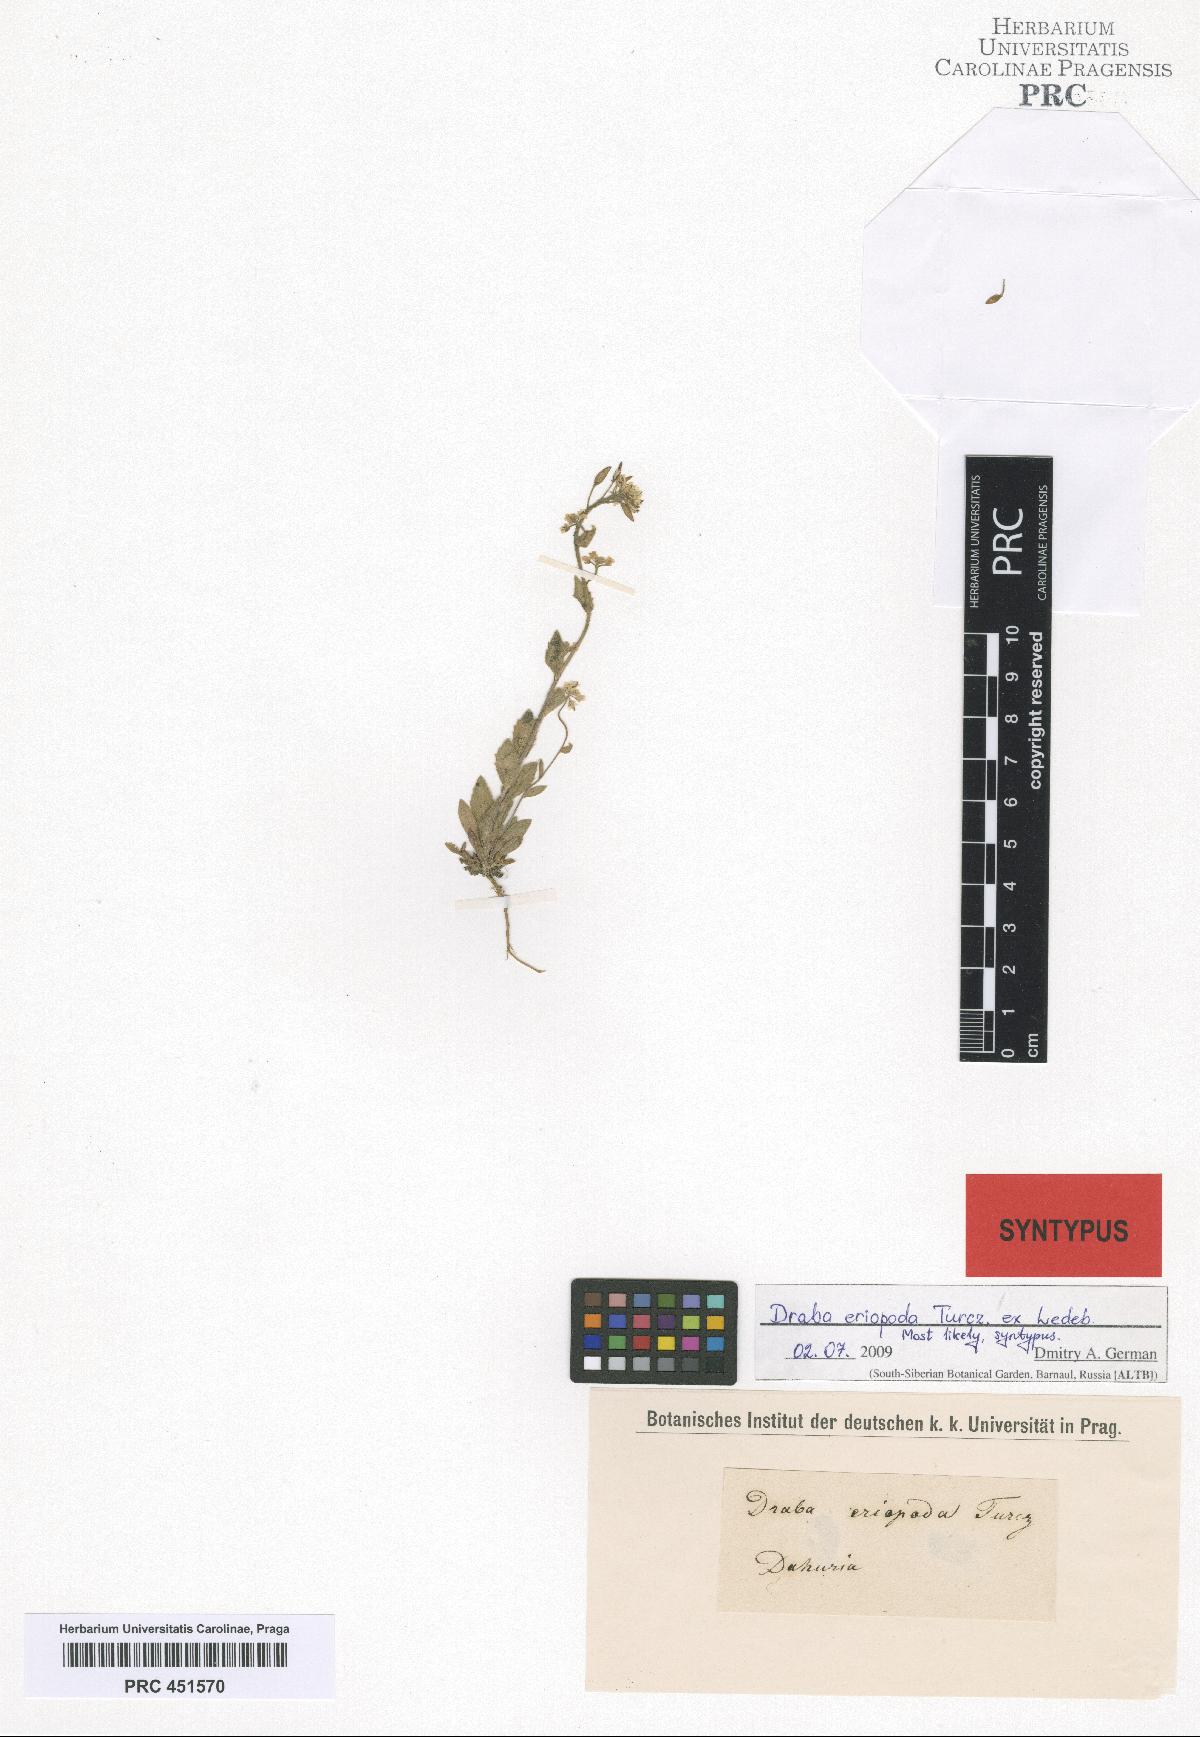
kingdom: Plantae
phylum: Tracheophyta
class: Magnoliopsida
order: Brassicales
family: Brassicaceae
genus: Draba
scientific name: Draba eriopoda
